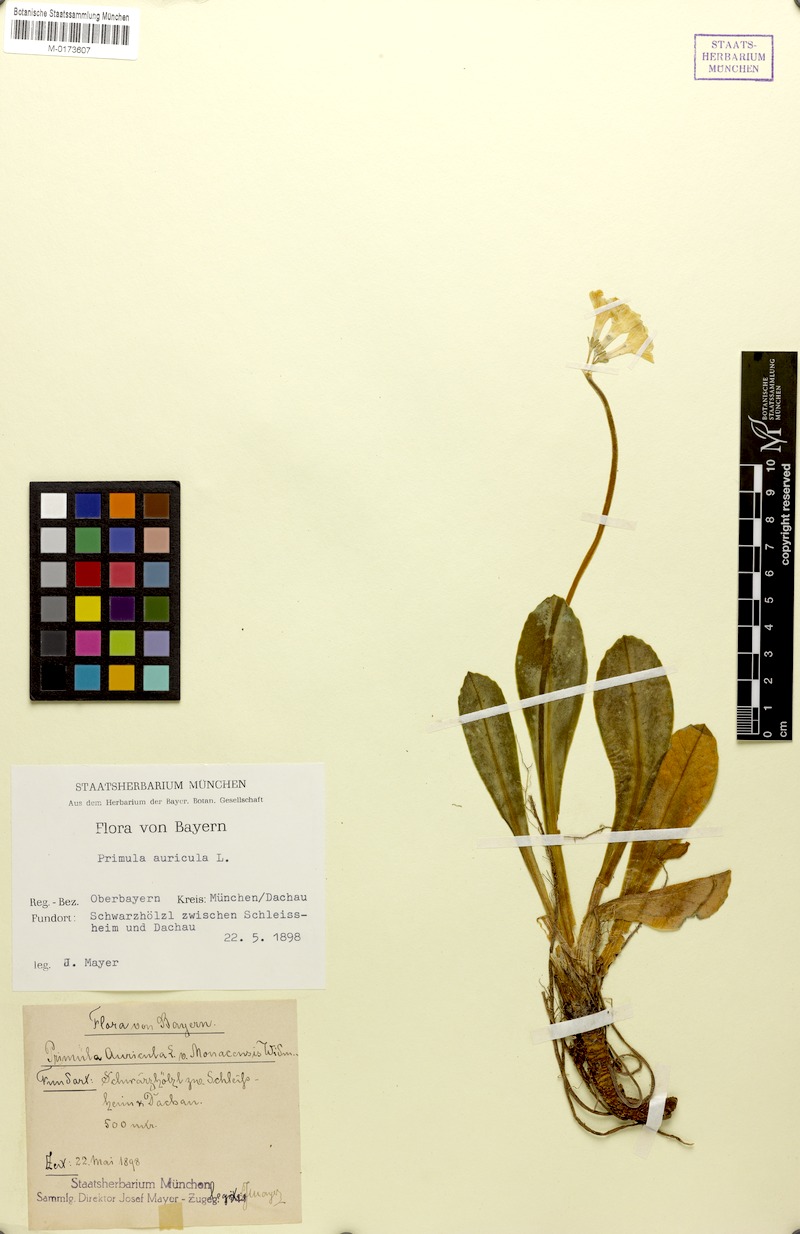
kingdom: Plantae
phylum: Tracheophyta
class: Magnoliopsida
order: Ericales
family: Primulaceae
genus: Primula
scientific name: Primula auricula
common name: Auricula
